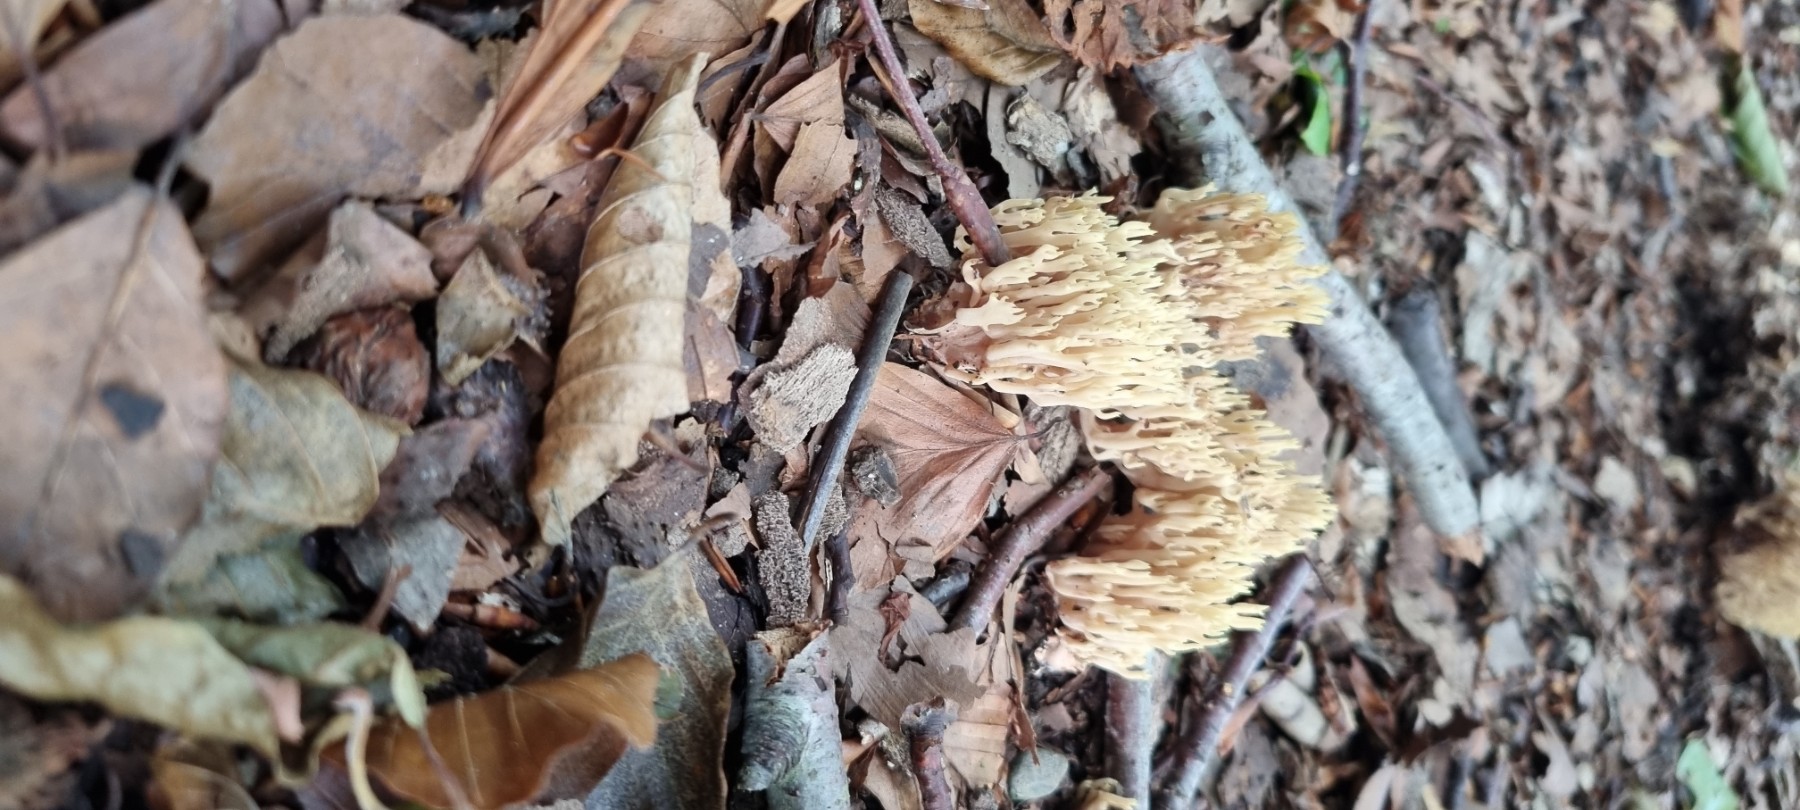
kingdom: Fungi
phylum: Basidiomycota
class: Agaricomycetes
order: Gomphales
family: Gomphaceae
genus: Ramaria
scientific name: Ramaria stricta
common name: rank koralsvamp
